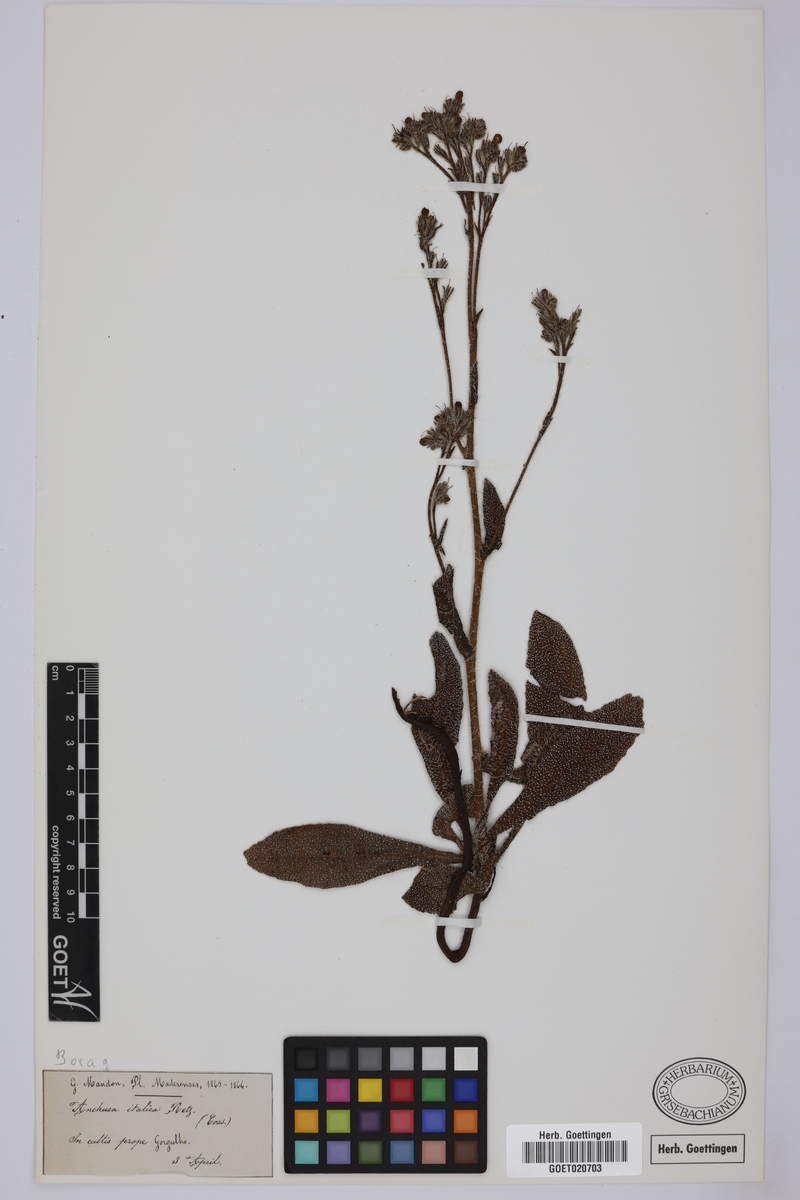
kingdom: Plantae
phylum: Tracheophyta
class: Magnoliopsida
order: Boraginales
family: Boraginaceae
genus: Anchusa
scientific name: Anchusa azurea
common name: Garden anchusa
